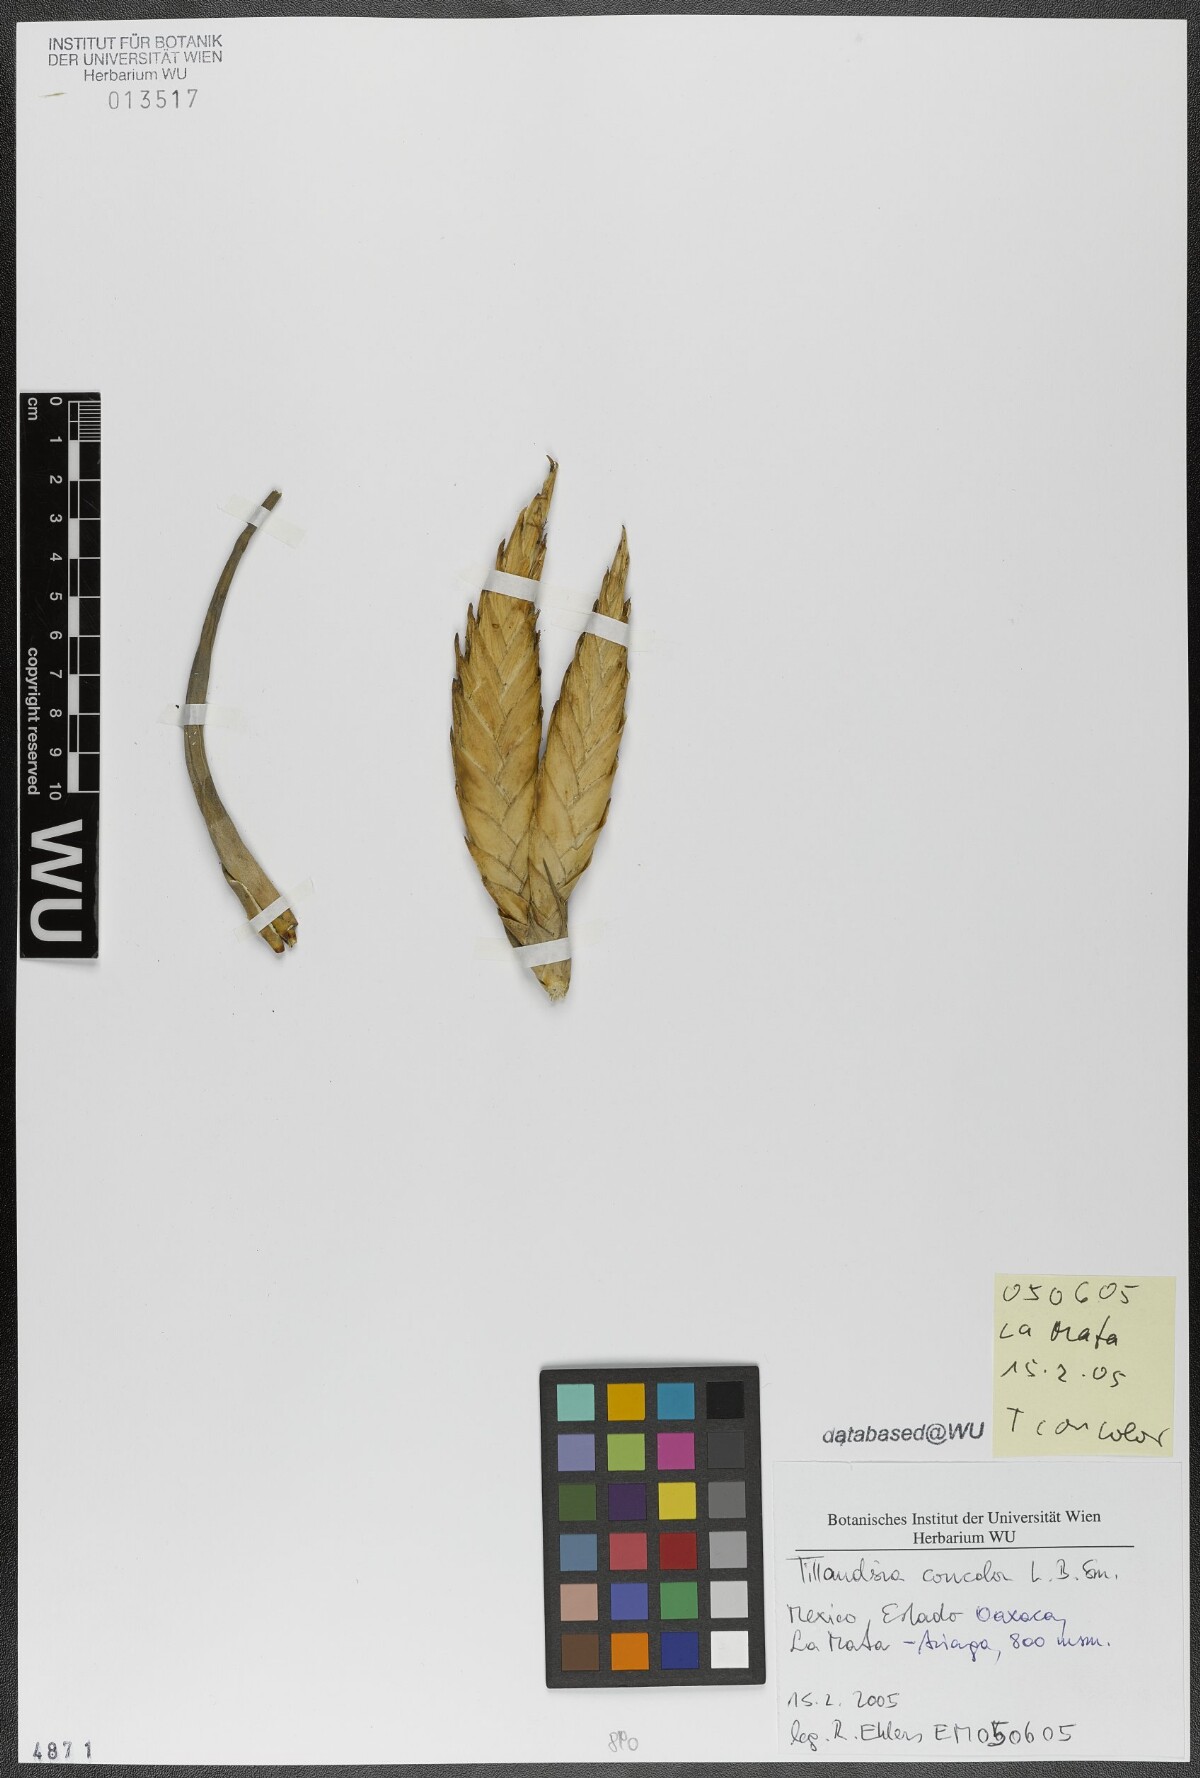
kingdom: Plantae
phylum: Tracheophyta
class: Liliopsida
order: Poales
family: Bromeliaceae
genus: Tillandsia
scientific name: Tillandsia concolor
